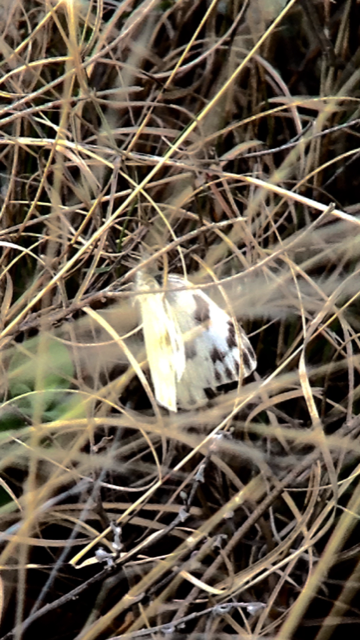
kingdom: Animalia
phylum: Arthropoda
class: Insecta
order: Lepidoptera
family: Hesperiidae
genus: Pyrgus
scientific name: Pyrgus communis
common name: Common Checkered-Skipper
